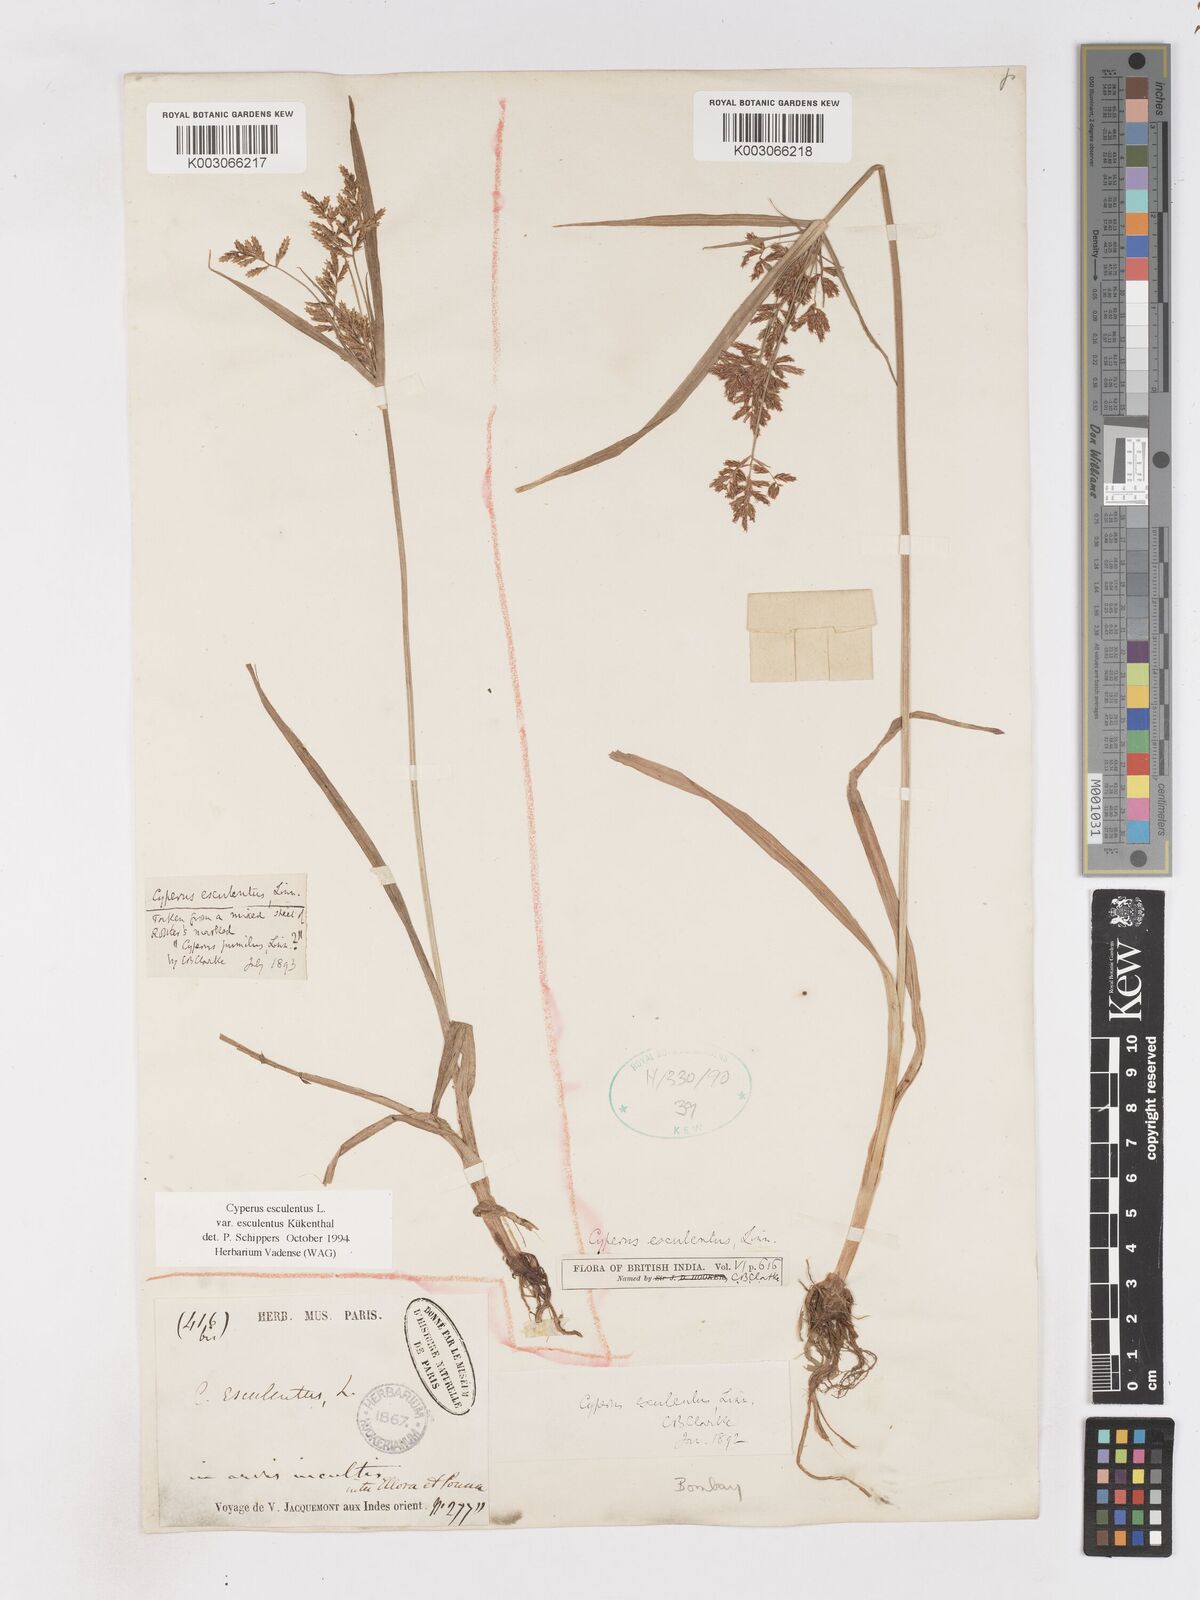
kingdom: Plantae
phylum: Tracheophyta
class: Liliopsida
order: Poales
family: Cyperaceae
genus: Cyperus
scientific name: Cyperus esculentus
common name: Yellow nutsedge
